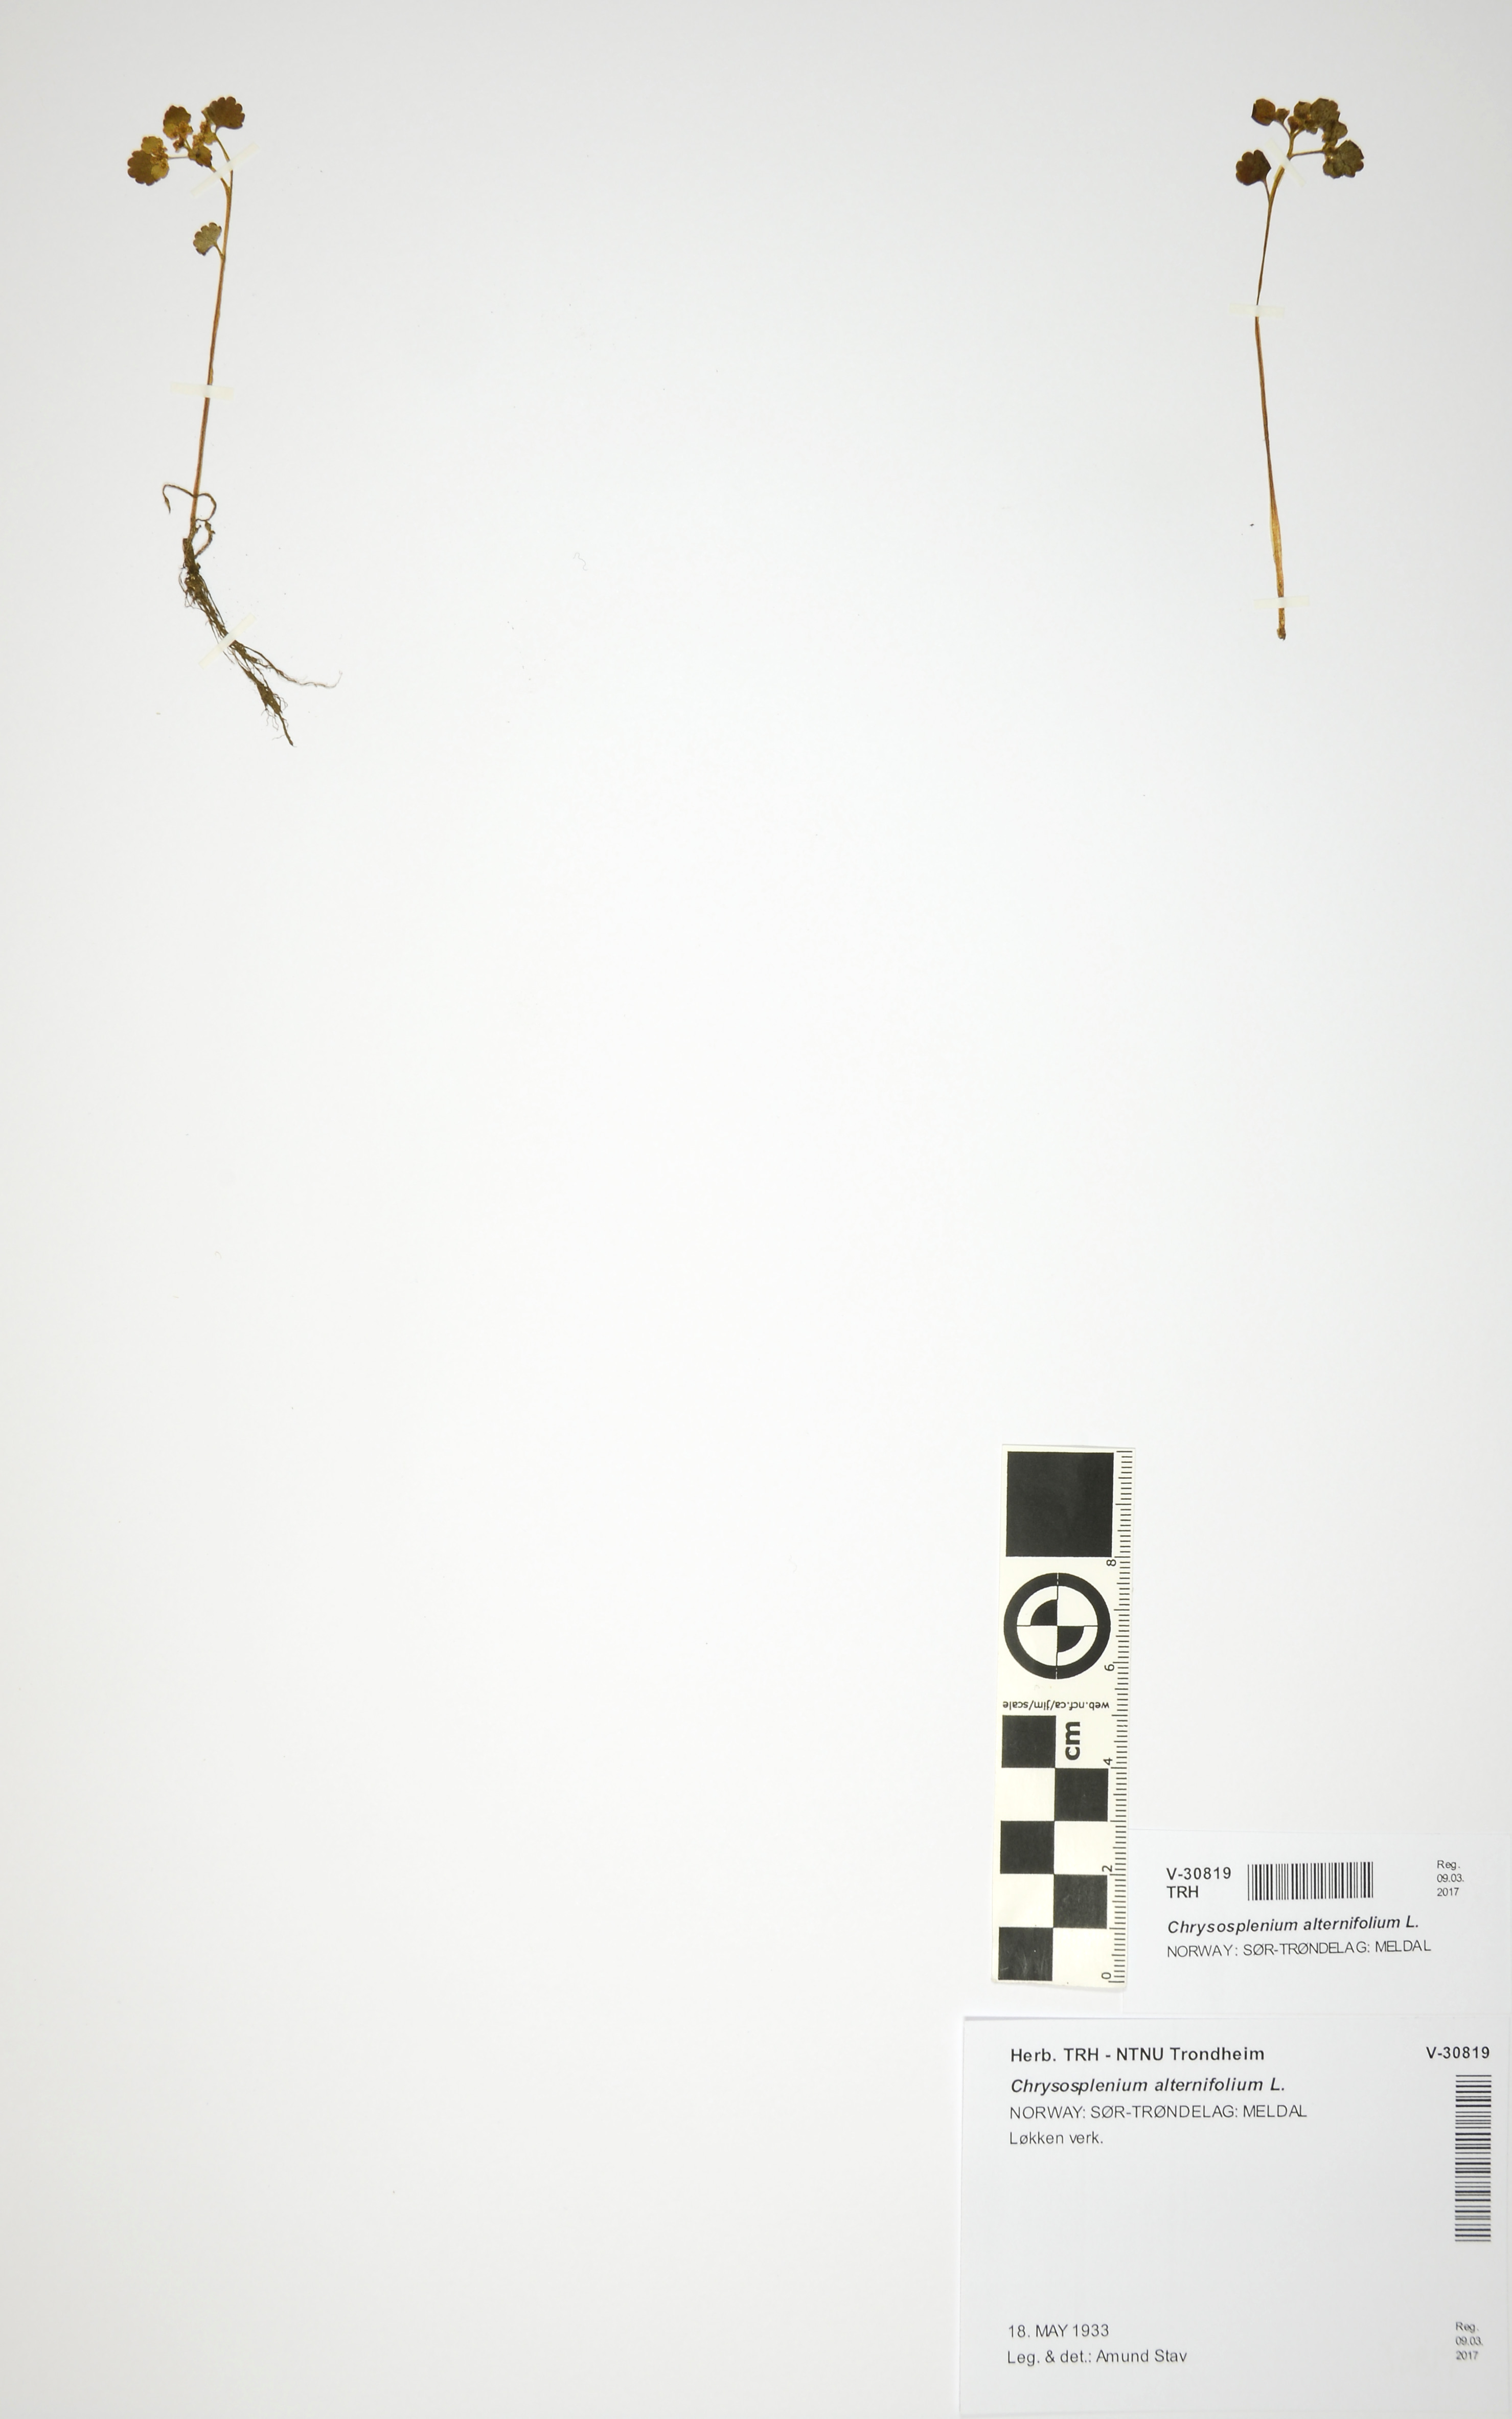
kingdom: Plantae
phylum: Tracheophyta
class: Magnoliopsida
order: Saxifragales
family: Saxifragaceae
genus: Chrysosplenium
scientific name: Chrysosplenium alternifolium
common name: Alternate-leaved golden-saxifrage
